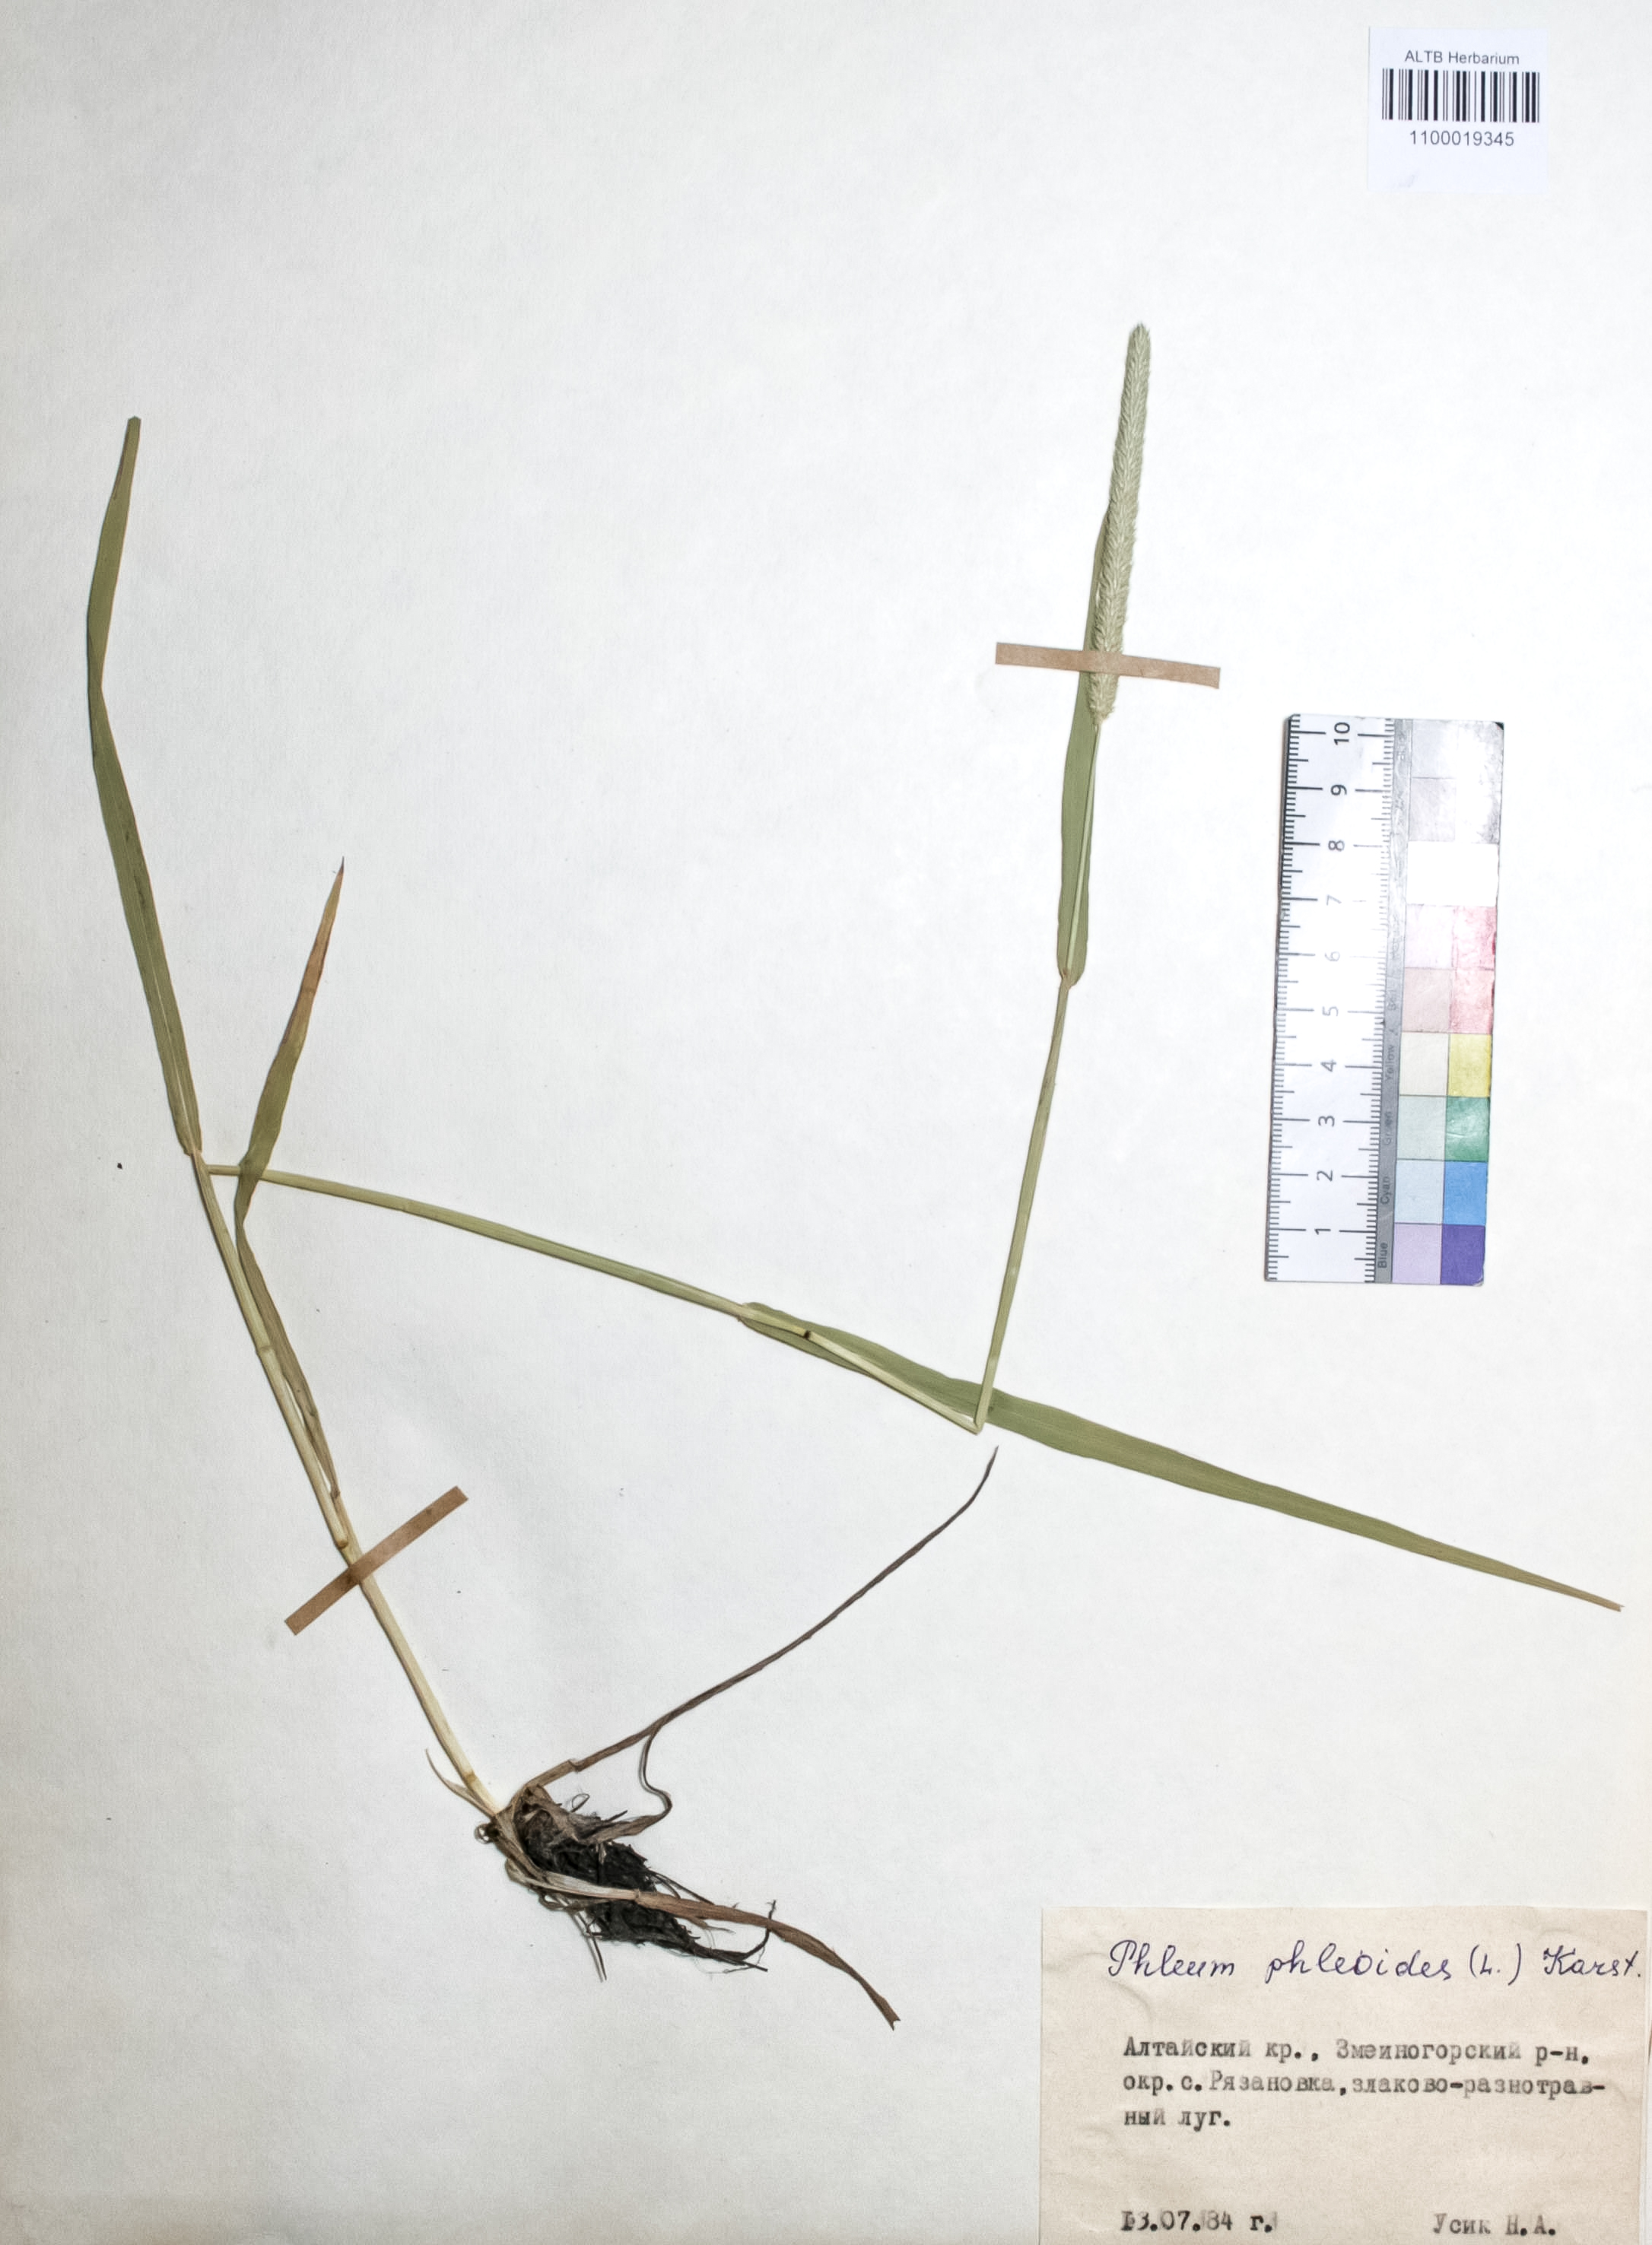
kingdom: Plantae
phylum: Tracheophyta
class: Liliopsida
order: Poales
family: Poaceae
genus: Phleum
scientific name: Phleum phleoides
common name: Purple-stem cat's-tail
